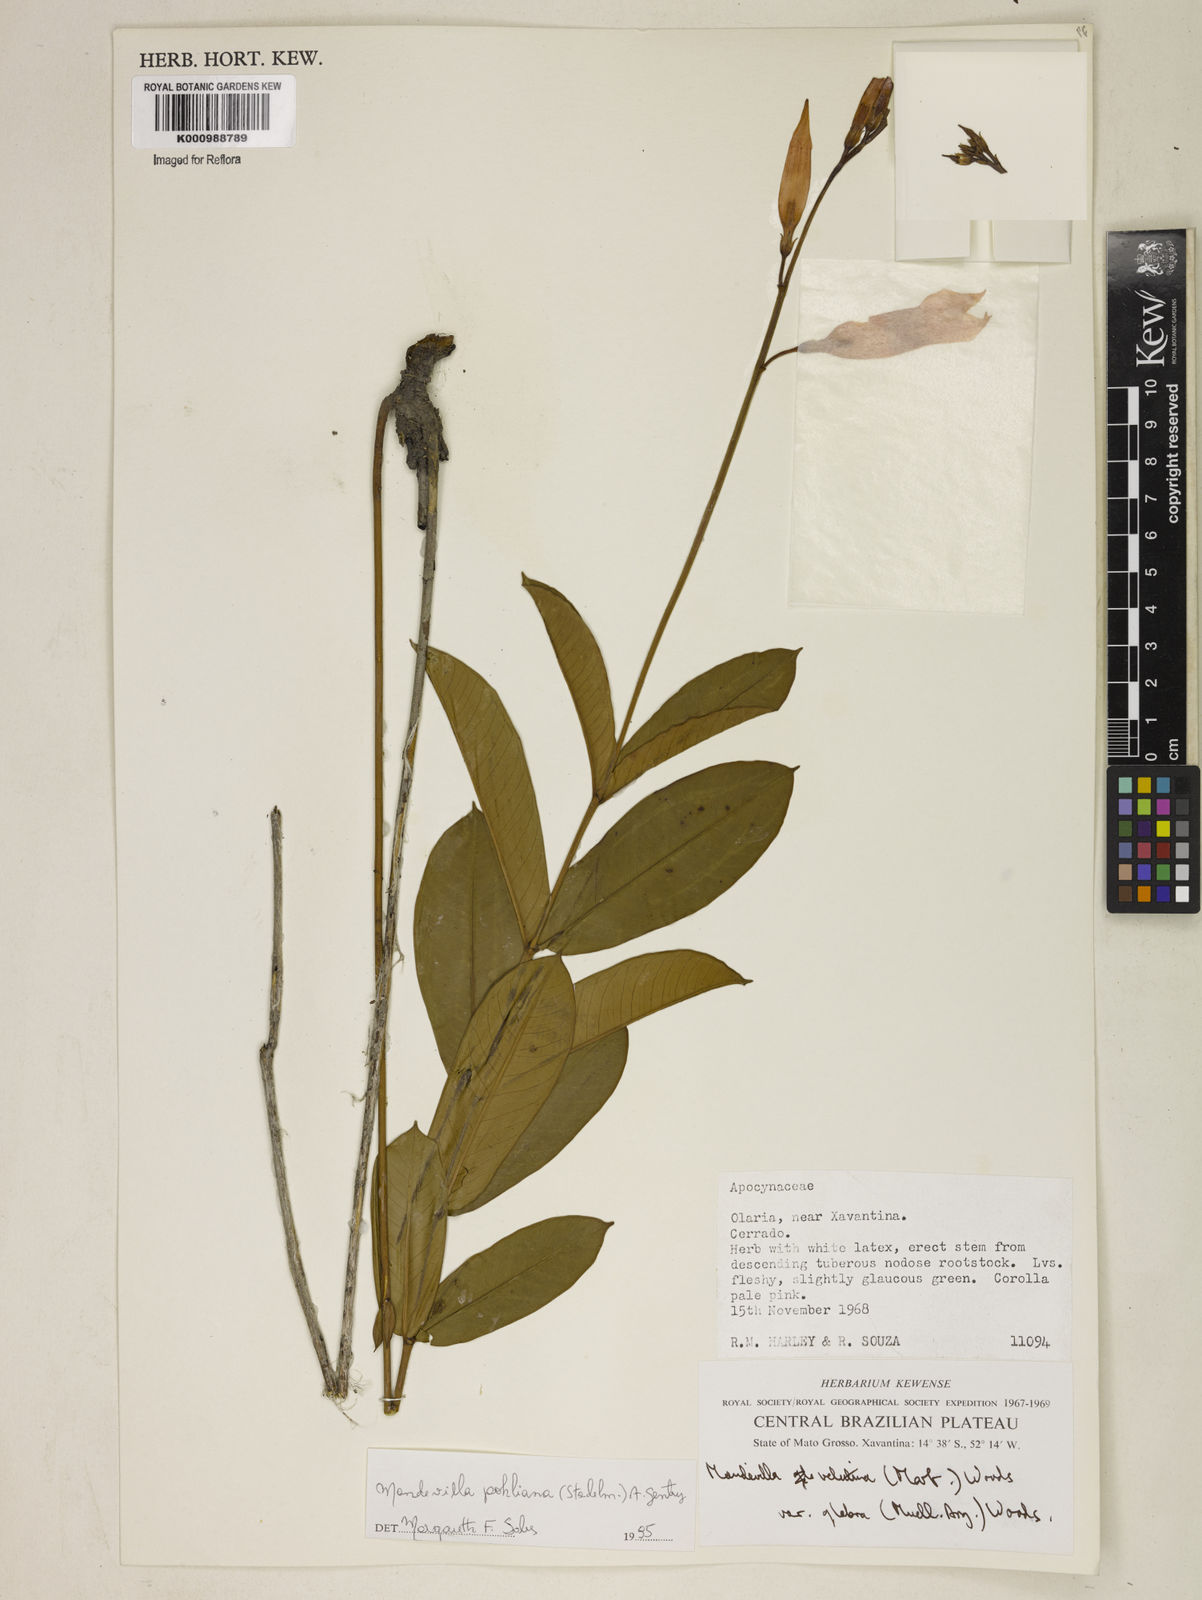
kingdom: Plantae
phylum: Tracheophyta
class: Magnoliopsida
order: Gentianales
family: Apocynaceae
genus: Mandevilla
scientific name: Mandevilla pohliana
